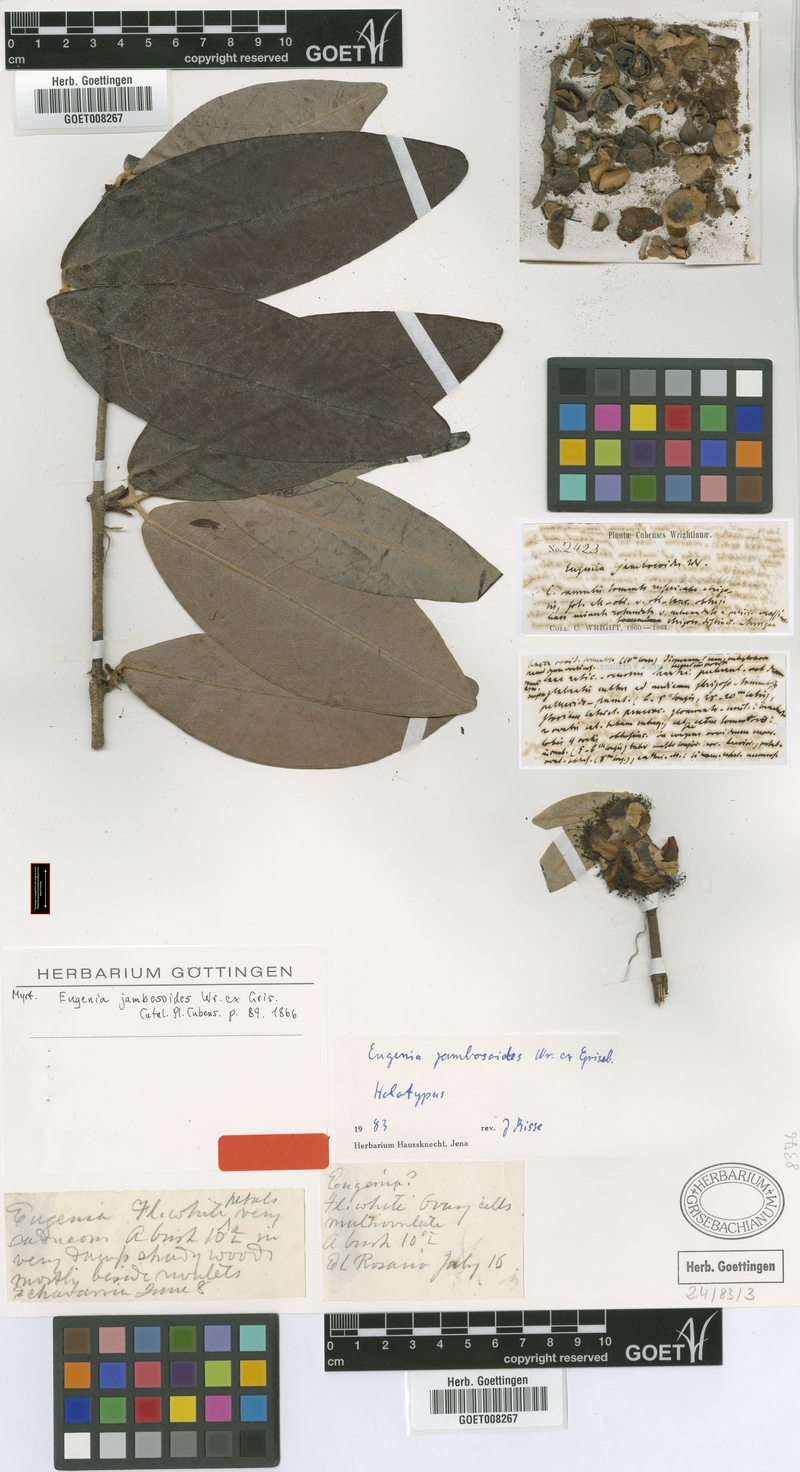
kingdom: Plantae
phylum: Tracheophyta
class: Magnoliopsida
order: Myrtales
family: Myrtaceae
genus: Eugenia
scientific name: Eugenia jambosoides
